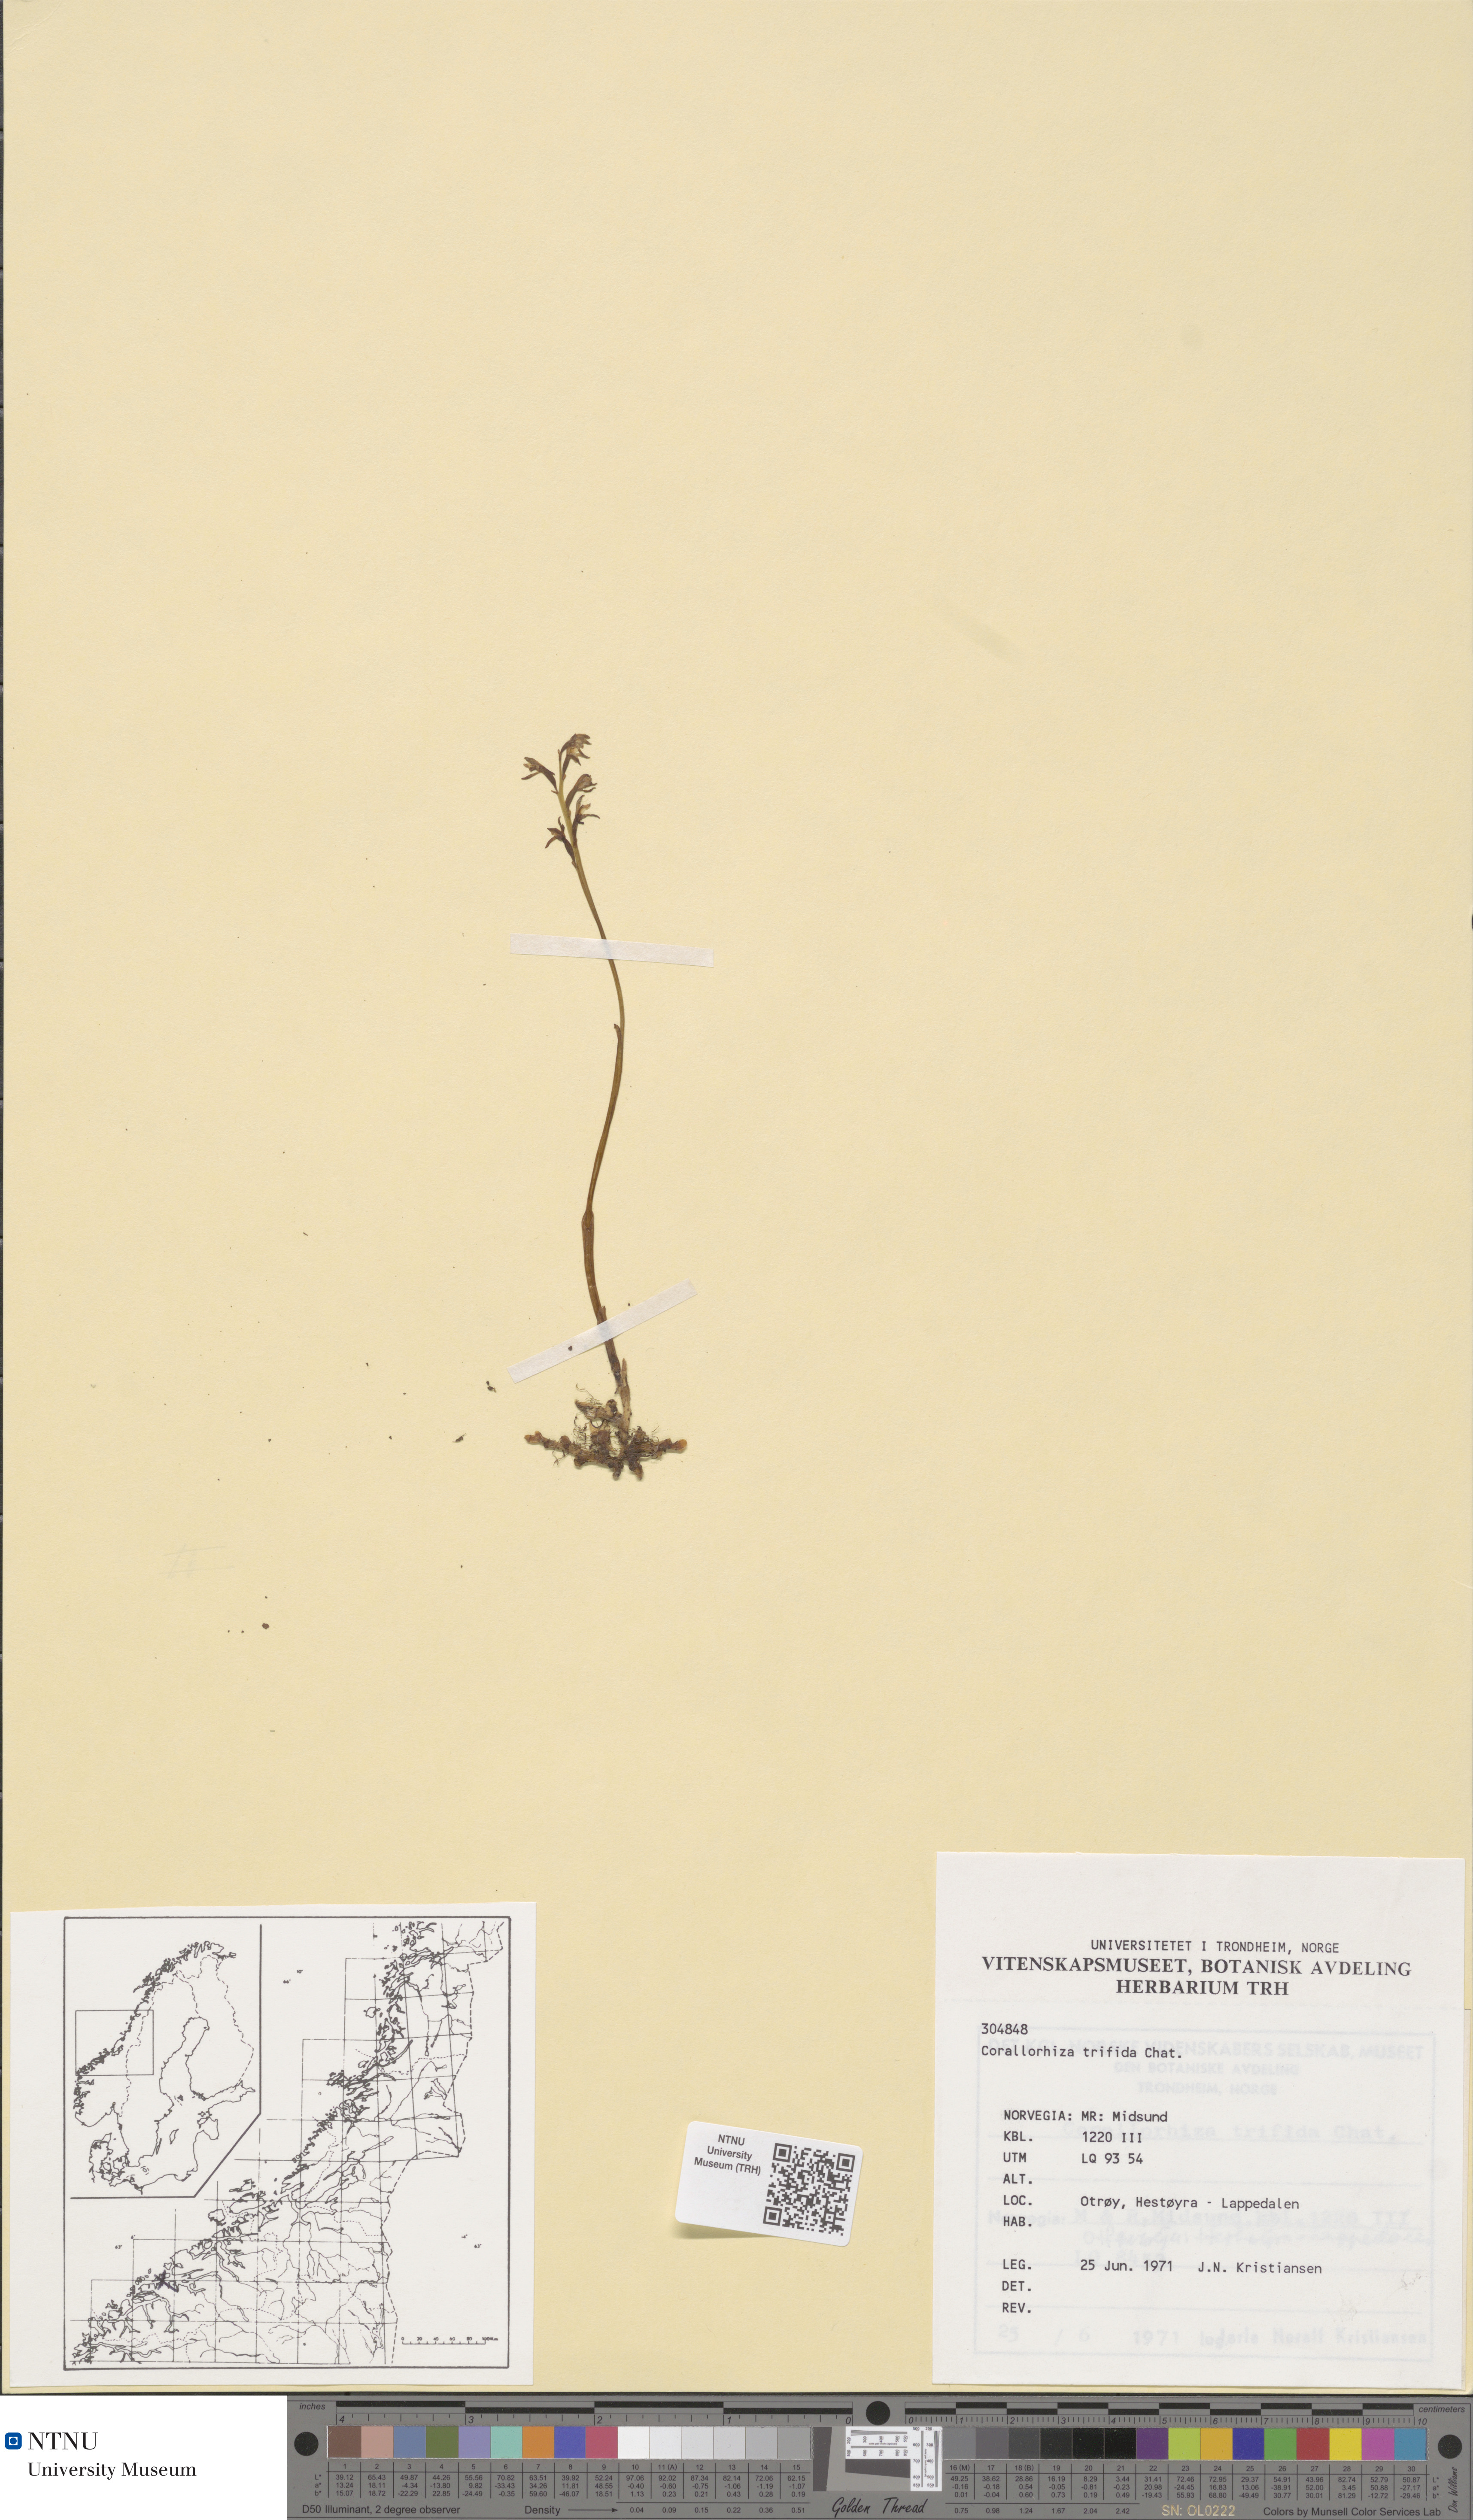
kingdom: Plantae
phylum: Tracheophyta
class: Liliopsida
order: Asparagales
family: Orchidaceae
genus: Corallorhiza
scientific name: Corallorhiza trifida
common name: Yellow coralroot
